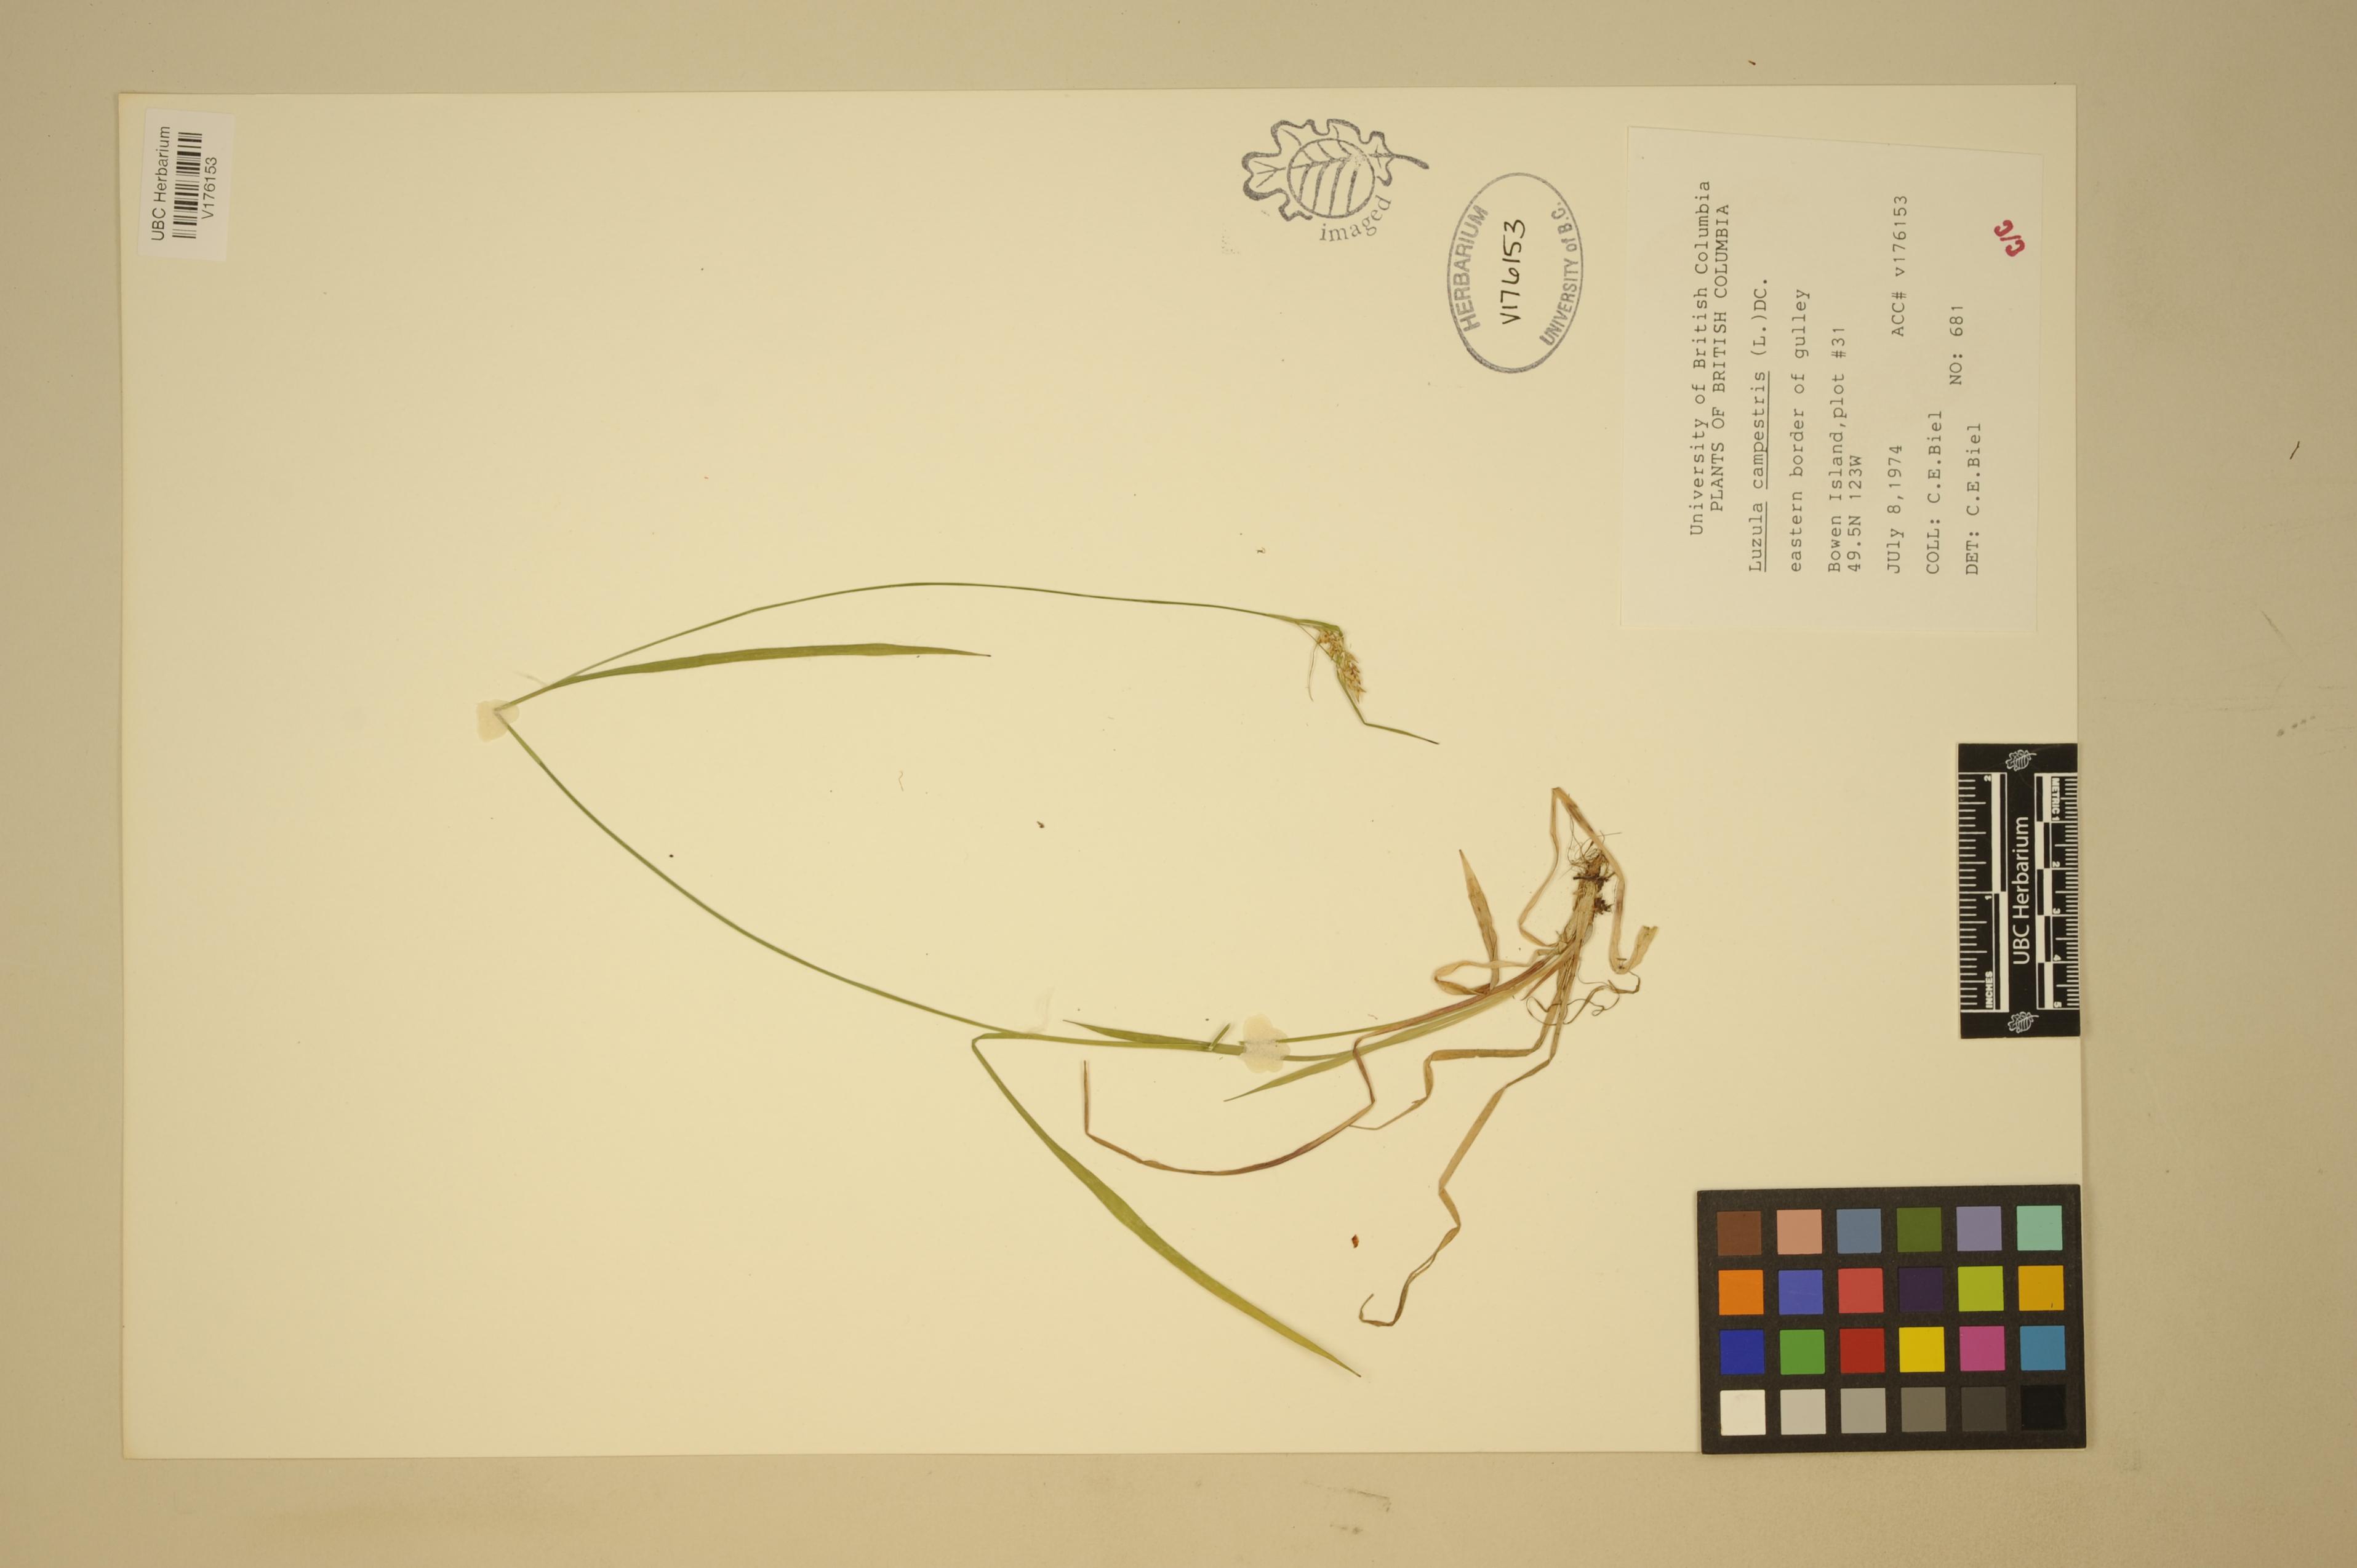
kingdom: Plantae
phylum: Tracheophyta
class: Liliopsida
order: Poales
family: Juncaceae
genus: Luzula
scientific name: Luzula comosa
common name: Pacific woodrush
